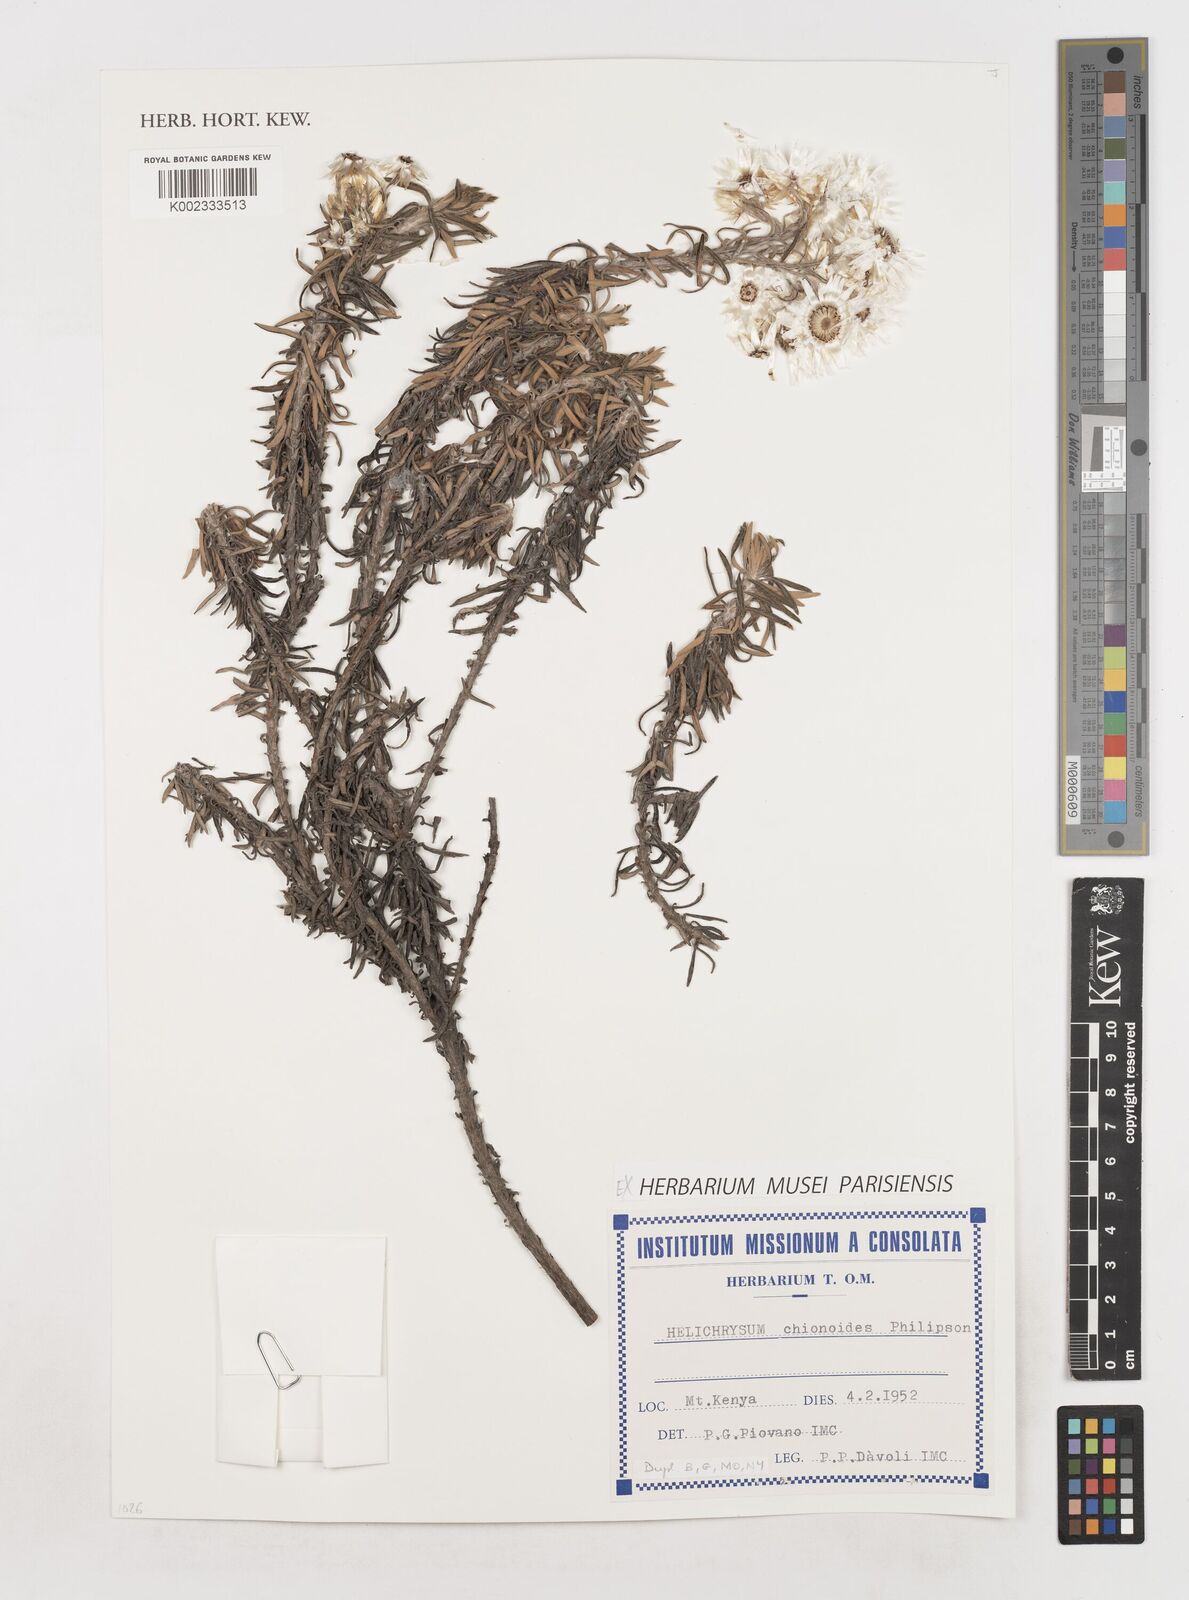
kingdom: Plantae
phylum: Tracheophyta
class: Magnoliopsida
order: Asterales
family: Asteraceae
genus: Helichrysum
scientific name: Helichrysum chionoides
